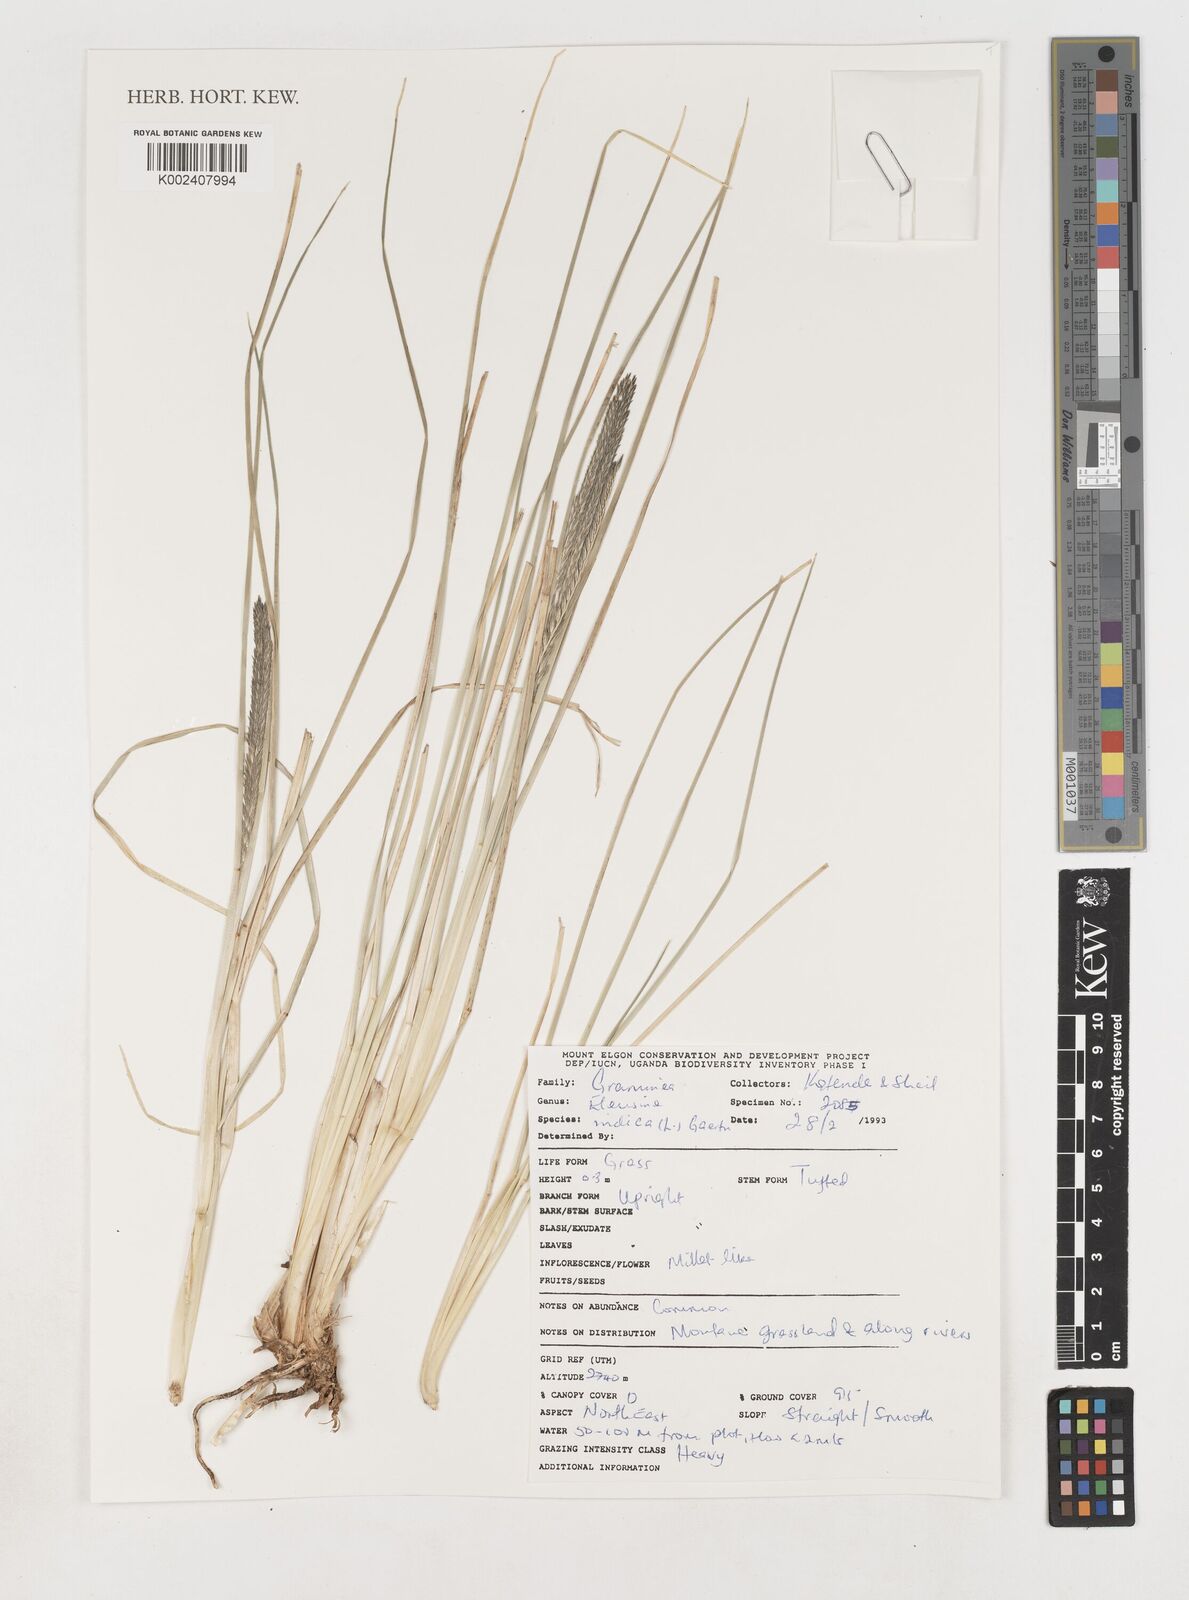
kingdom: Plantae
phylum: Tracheophyta
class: Liliopsida
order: Poales
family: Poaceae
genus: Eleusine
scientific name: Eleusine indica
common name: Yard-grass
